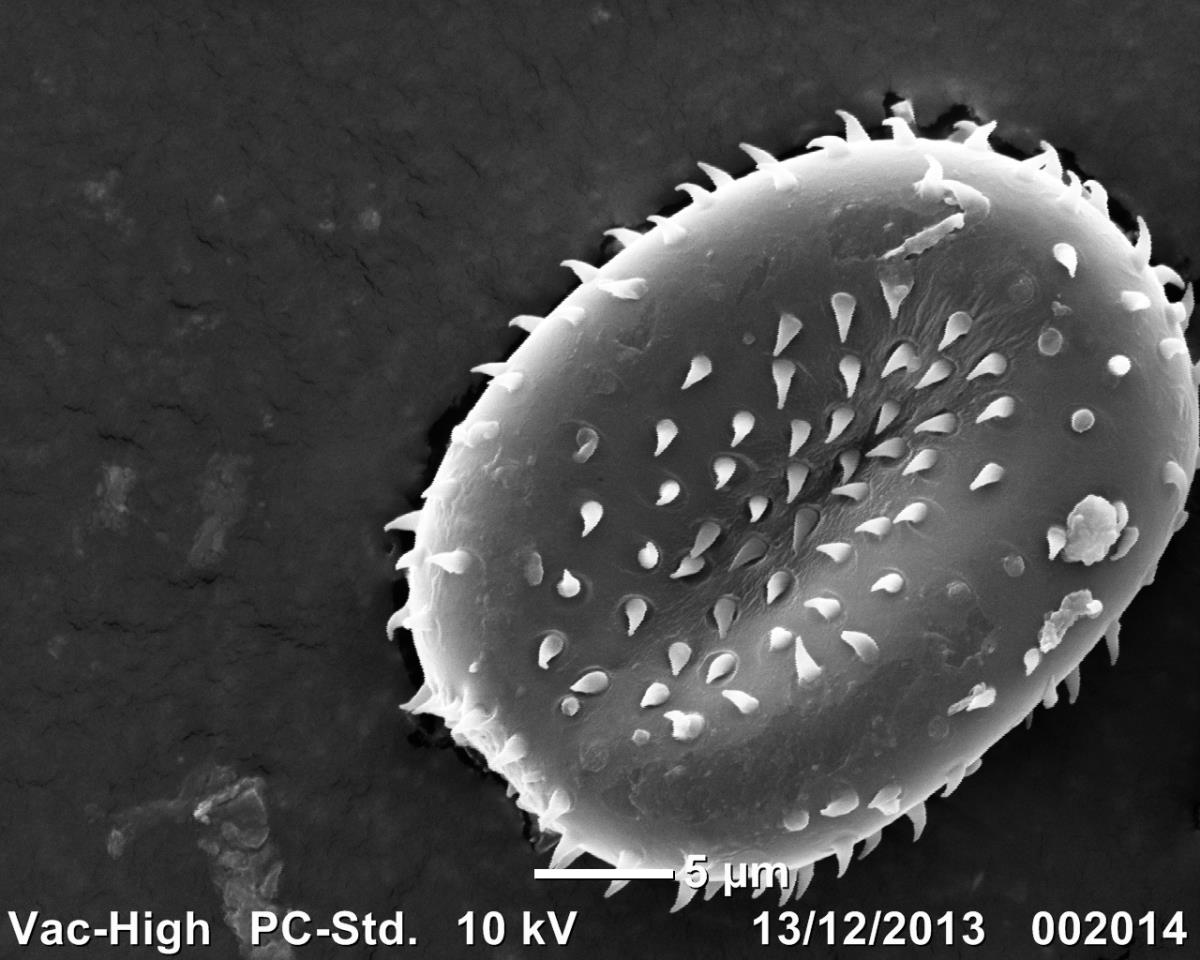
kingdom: Fungi
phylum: Basidiomycota
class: Pucciniomycetes
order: Pucciniales
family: Pucciniaceae
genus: Puccinia
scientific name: Puccinia cnici
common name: Rust fungus
